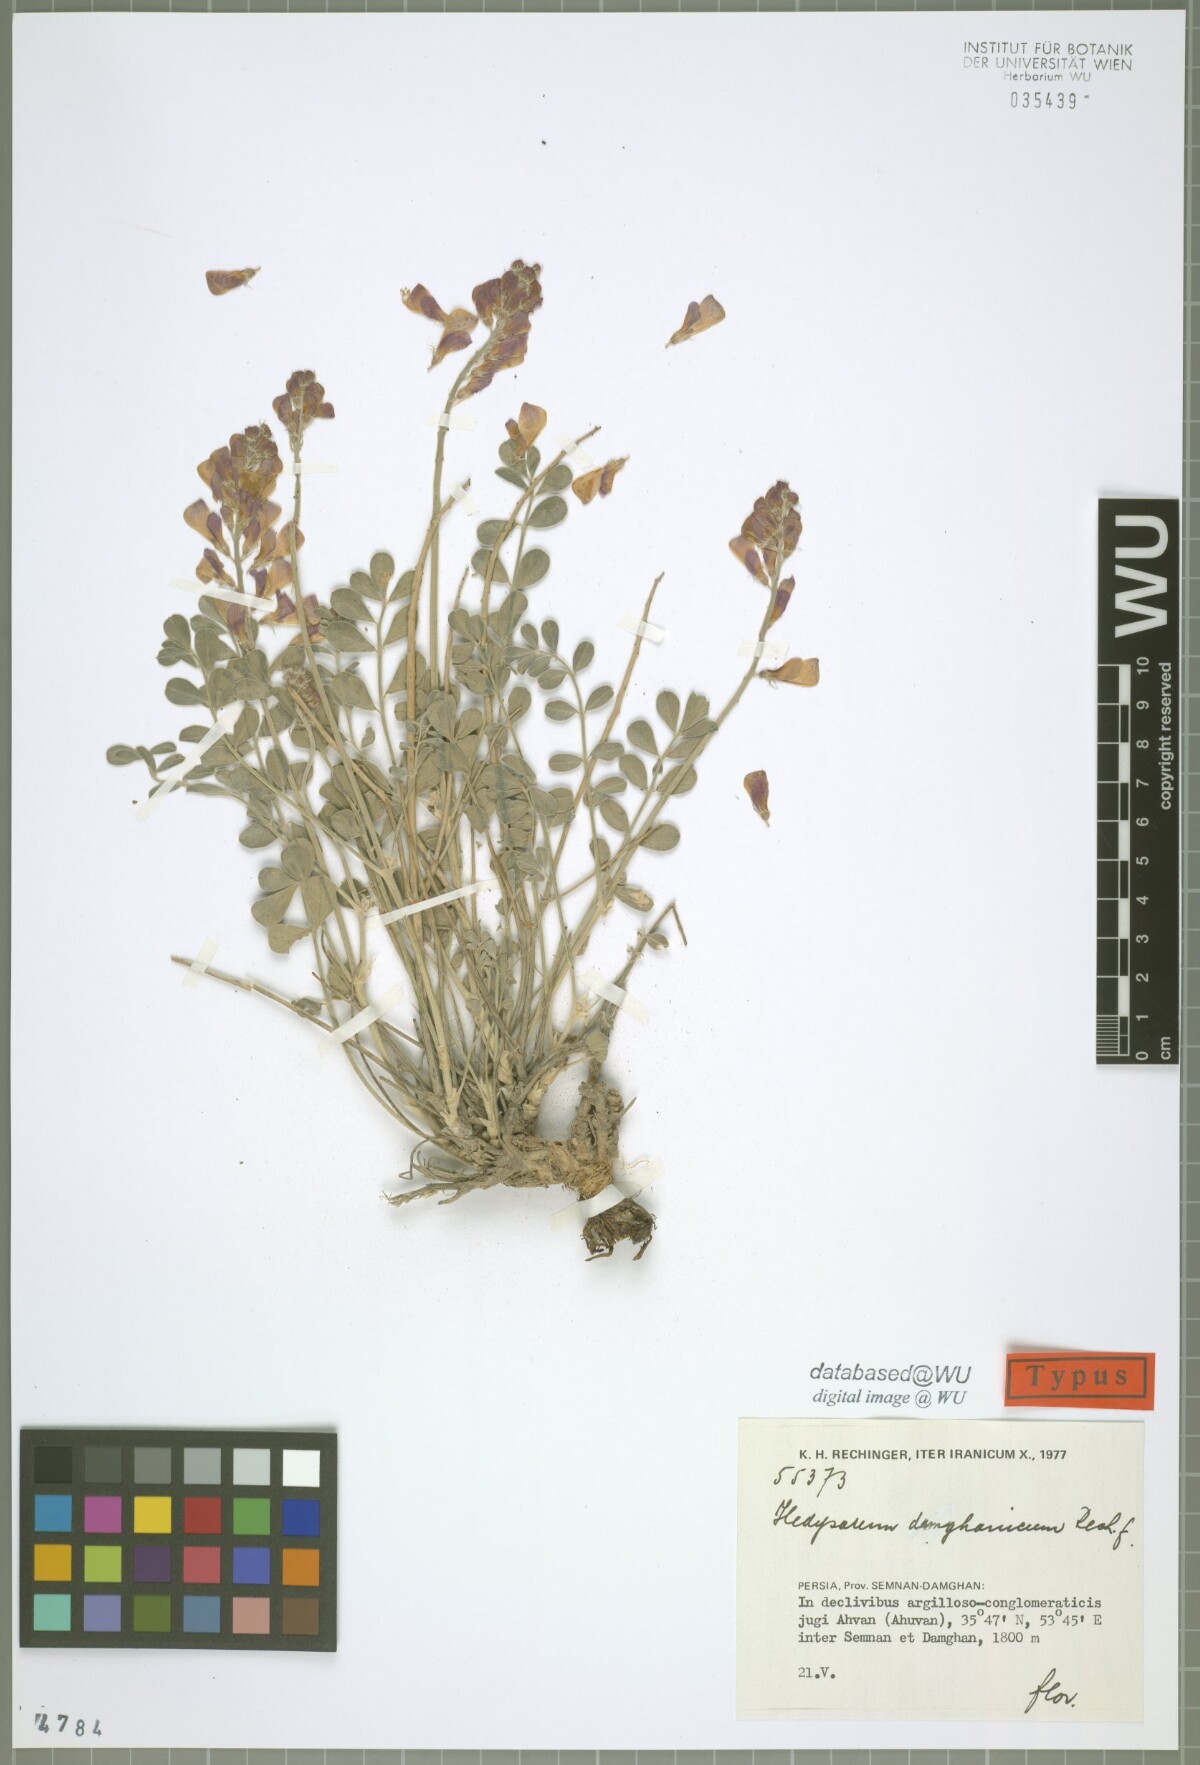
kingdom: Plantae
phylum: Tracheophyta
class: Magnoliopsida
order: Fabales
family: Fabaceae
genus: Hedysarum
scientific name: Hedysarum damghanicum
